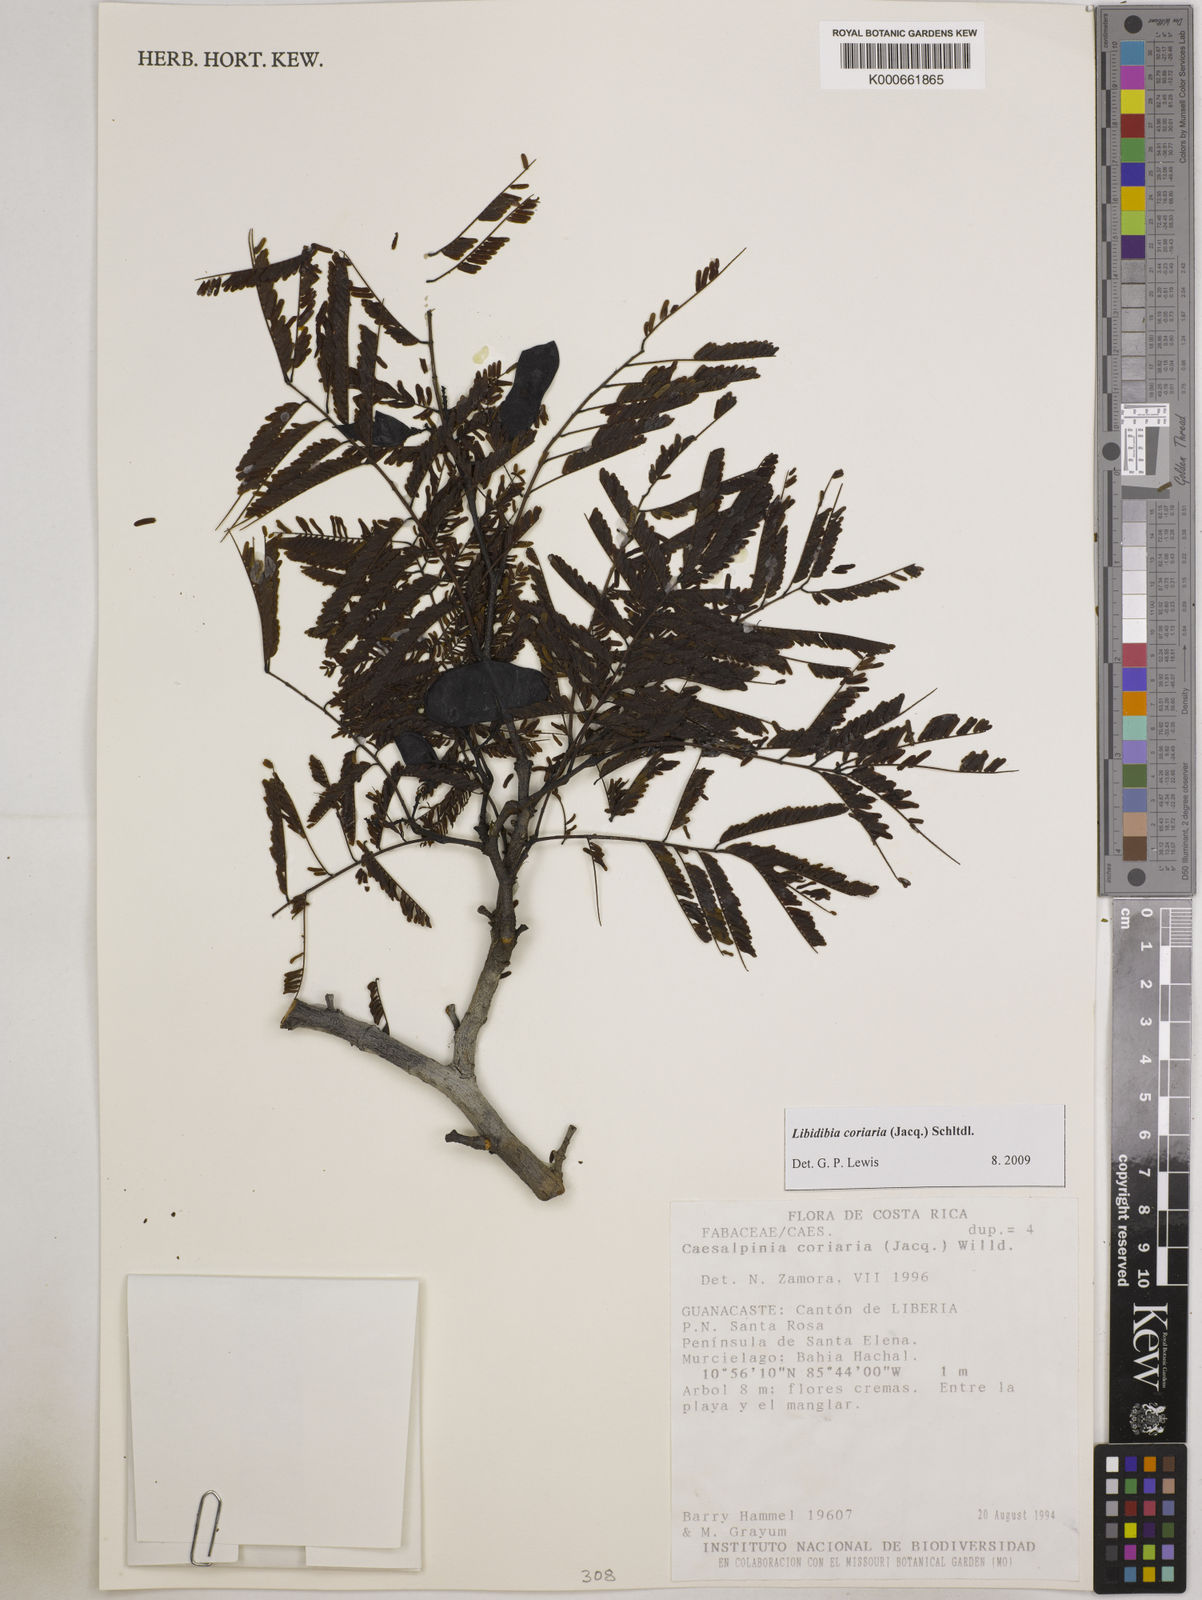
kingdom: Plantae
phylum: Tracheophyta
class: Magnoliopsida
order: Fabales
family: Fabaceae
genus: Libidibia
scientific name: Libidibia coriaria
